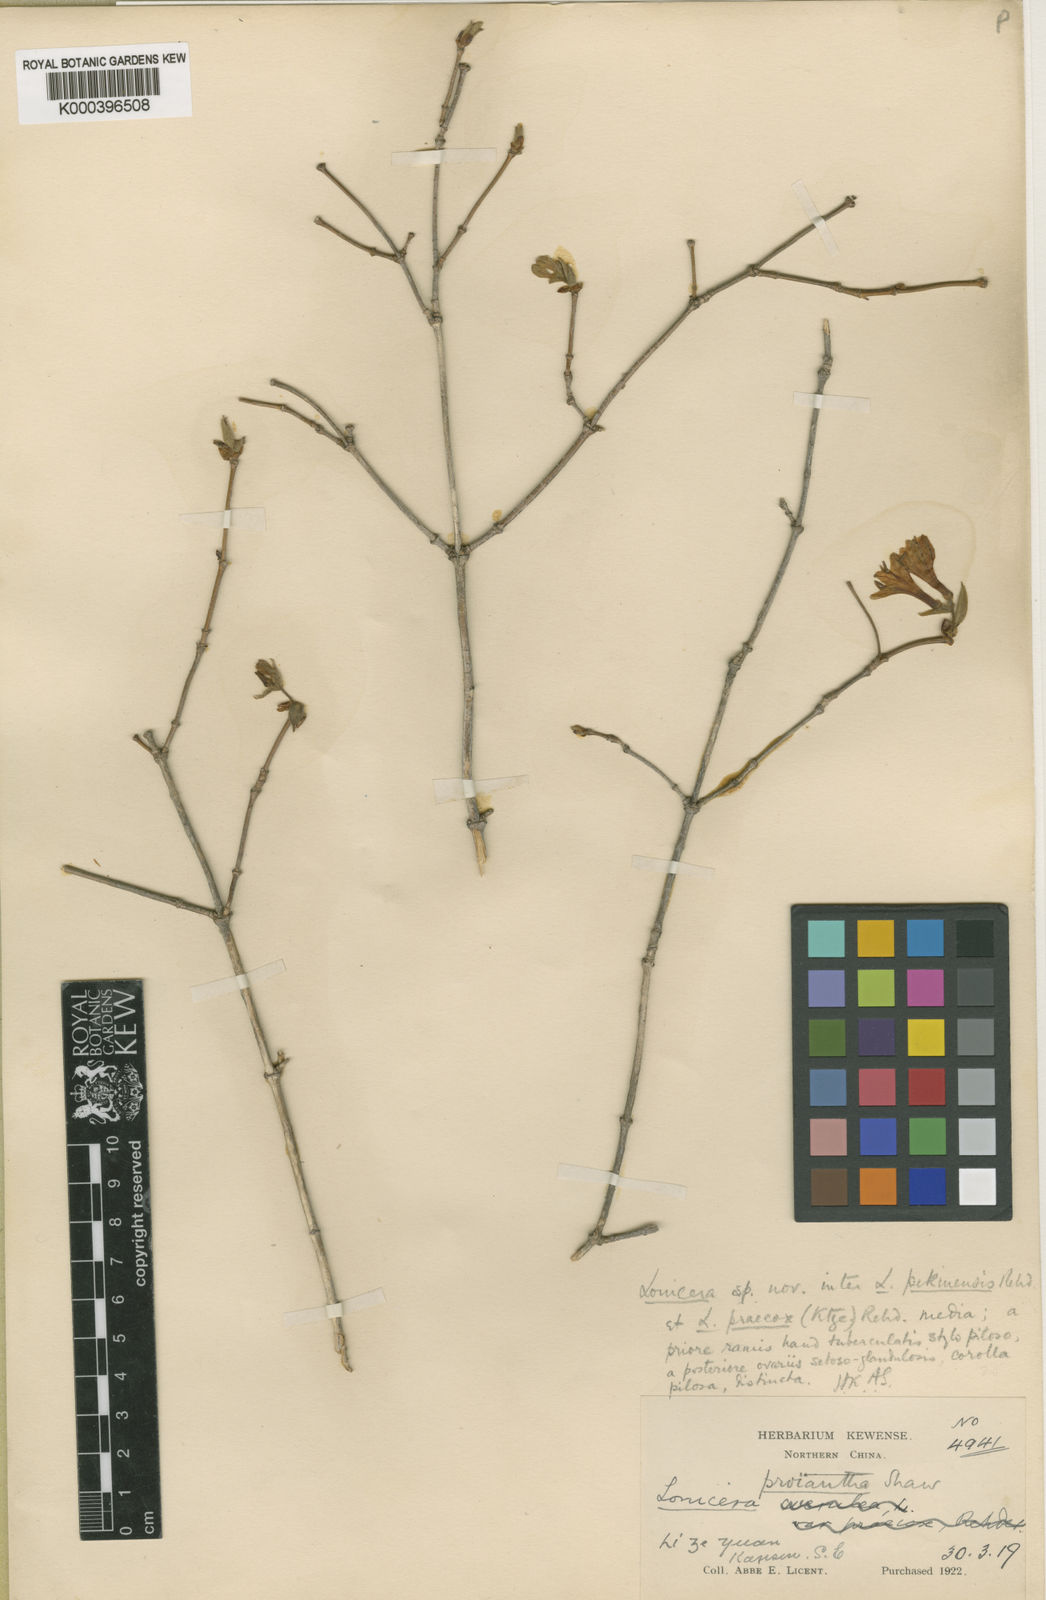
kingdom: Plantae
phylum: Tracheophyta
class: Magnoliopsida
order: Dipsacales
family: Caprifoliaceae
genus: Lonicera
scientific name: Lonicera
